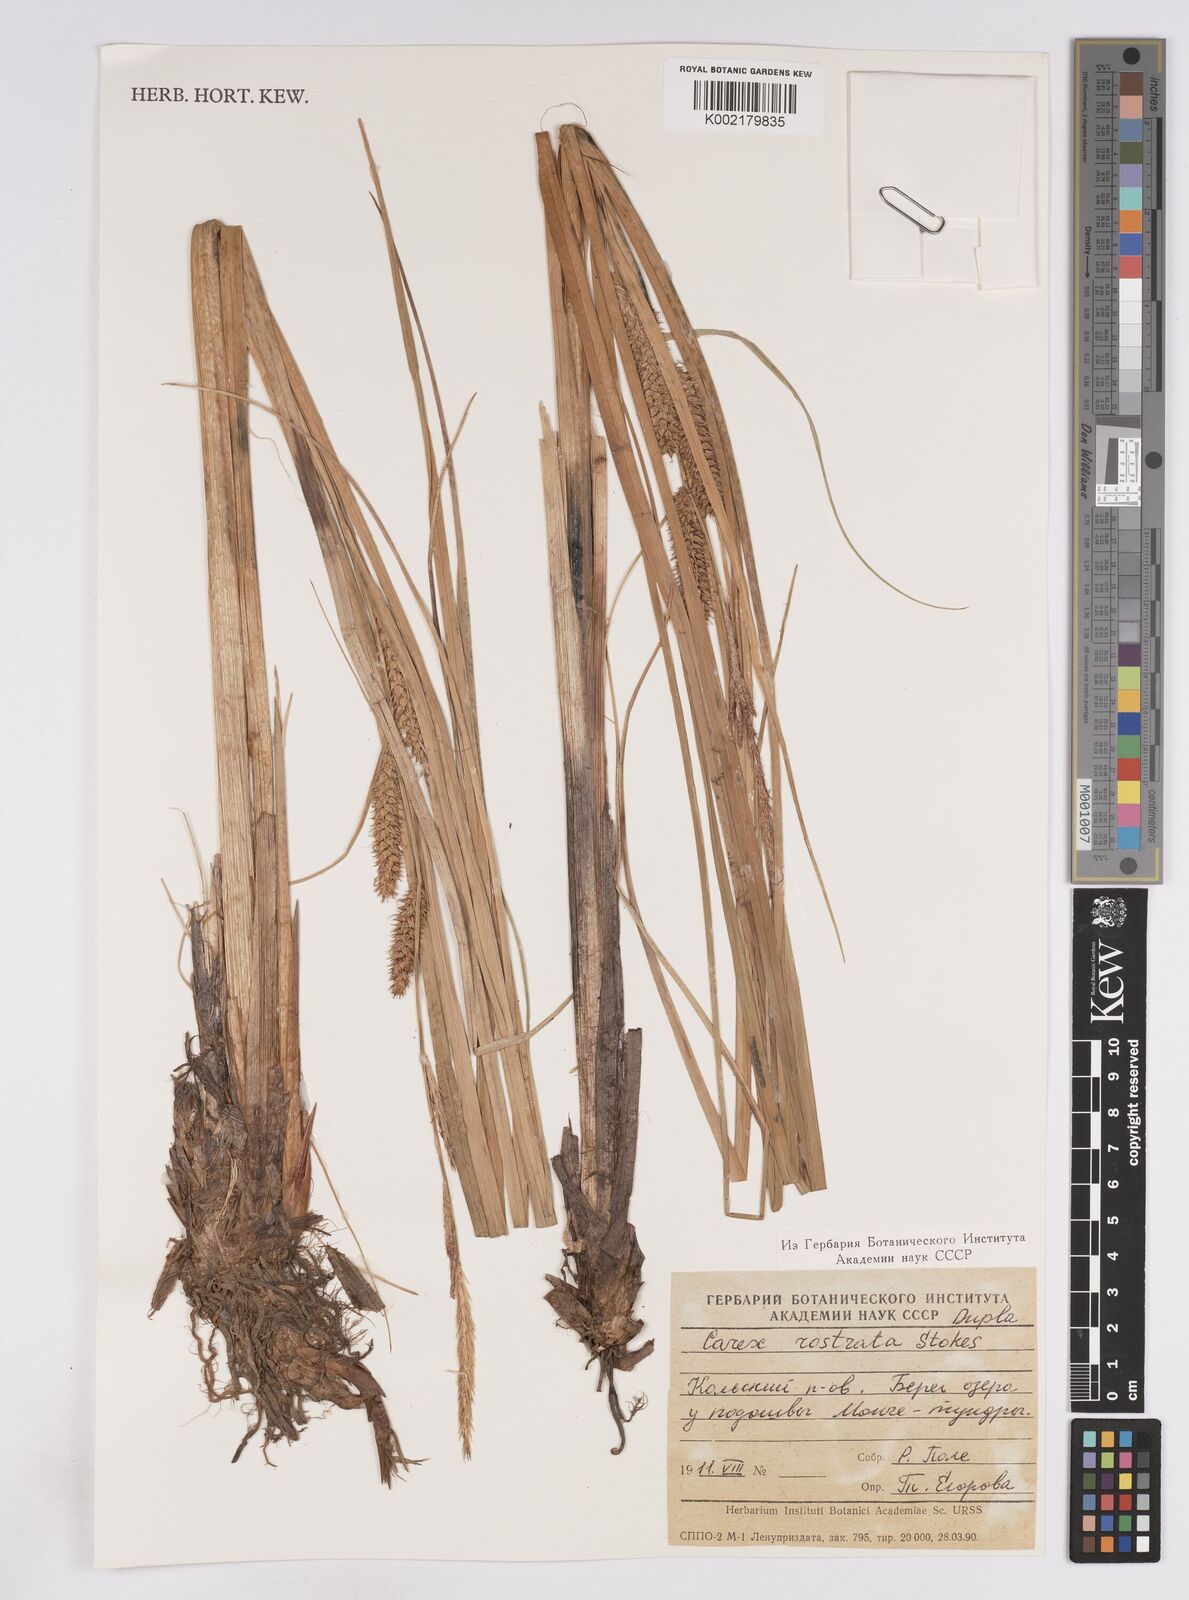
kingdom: Plantae
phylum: Tracheophyta
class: Liliopsida
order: Poales
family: Cyperaceae
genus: Carex
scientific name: Carex rostrata
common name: Bottle sedge
